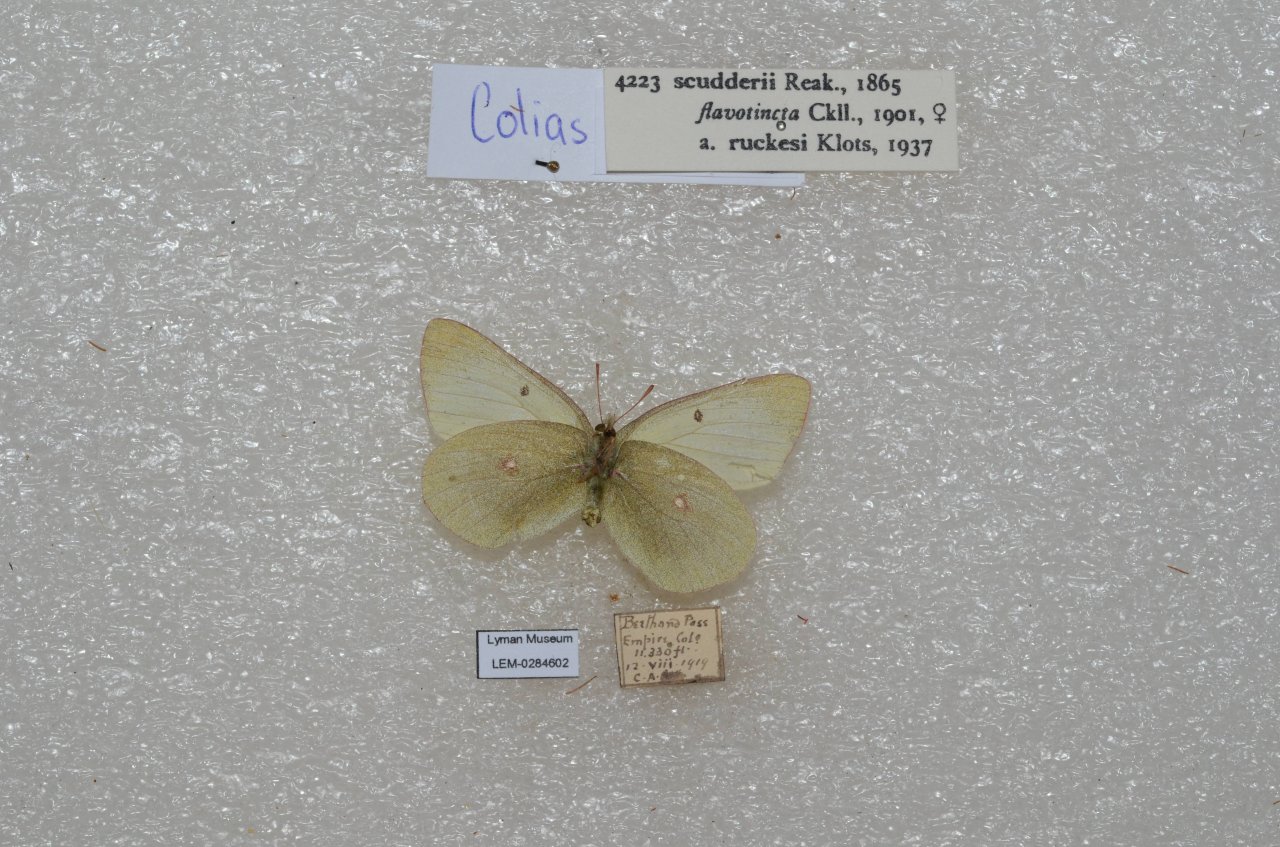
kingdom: Animalia
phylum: Arthropoda
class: Insecta
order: Lepidoptera
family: Pieridae
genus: Colias
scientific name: Colias scudderi
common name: Scudder's Sulphur
